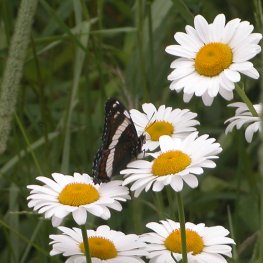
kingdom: Animalia
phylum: Arthropoda
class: Insecta
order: Lepidoptera
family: Nymphalidae
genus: Limenitis
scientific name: Limenitis arthemis
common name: Red-spotted Admiral
